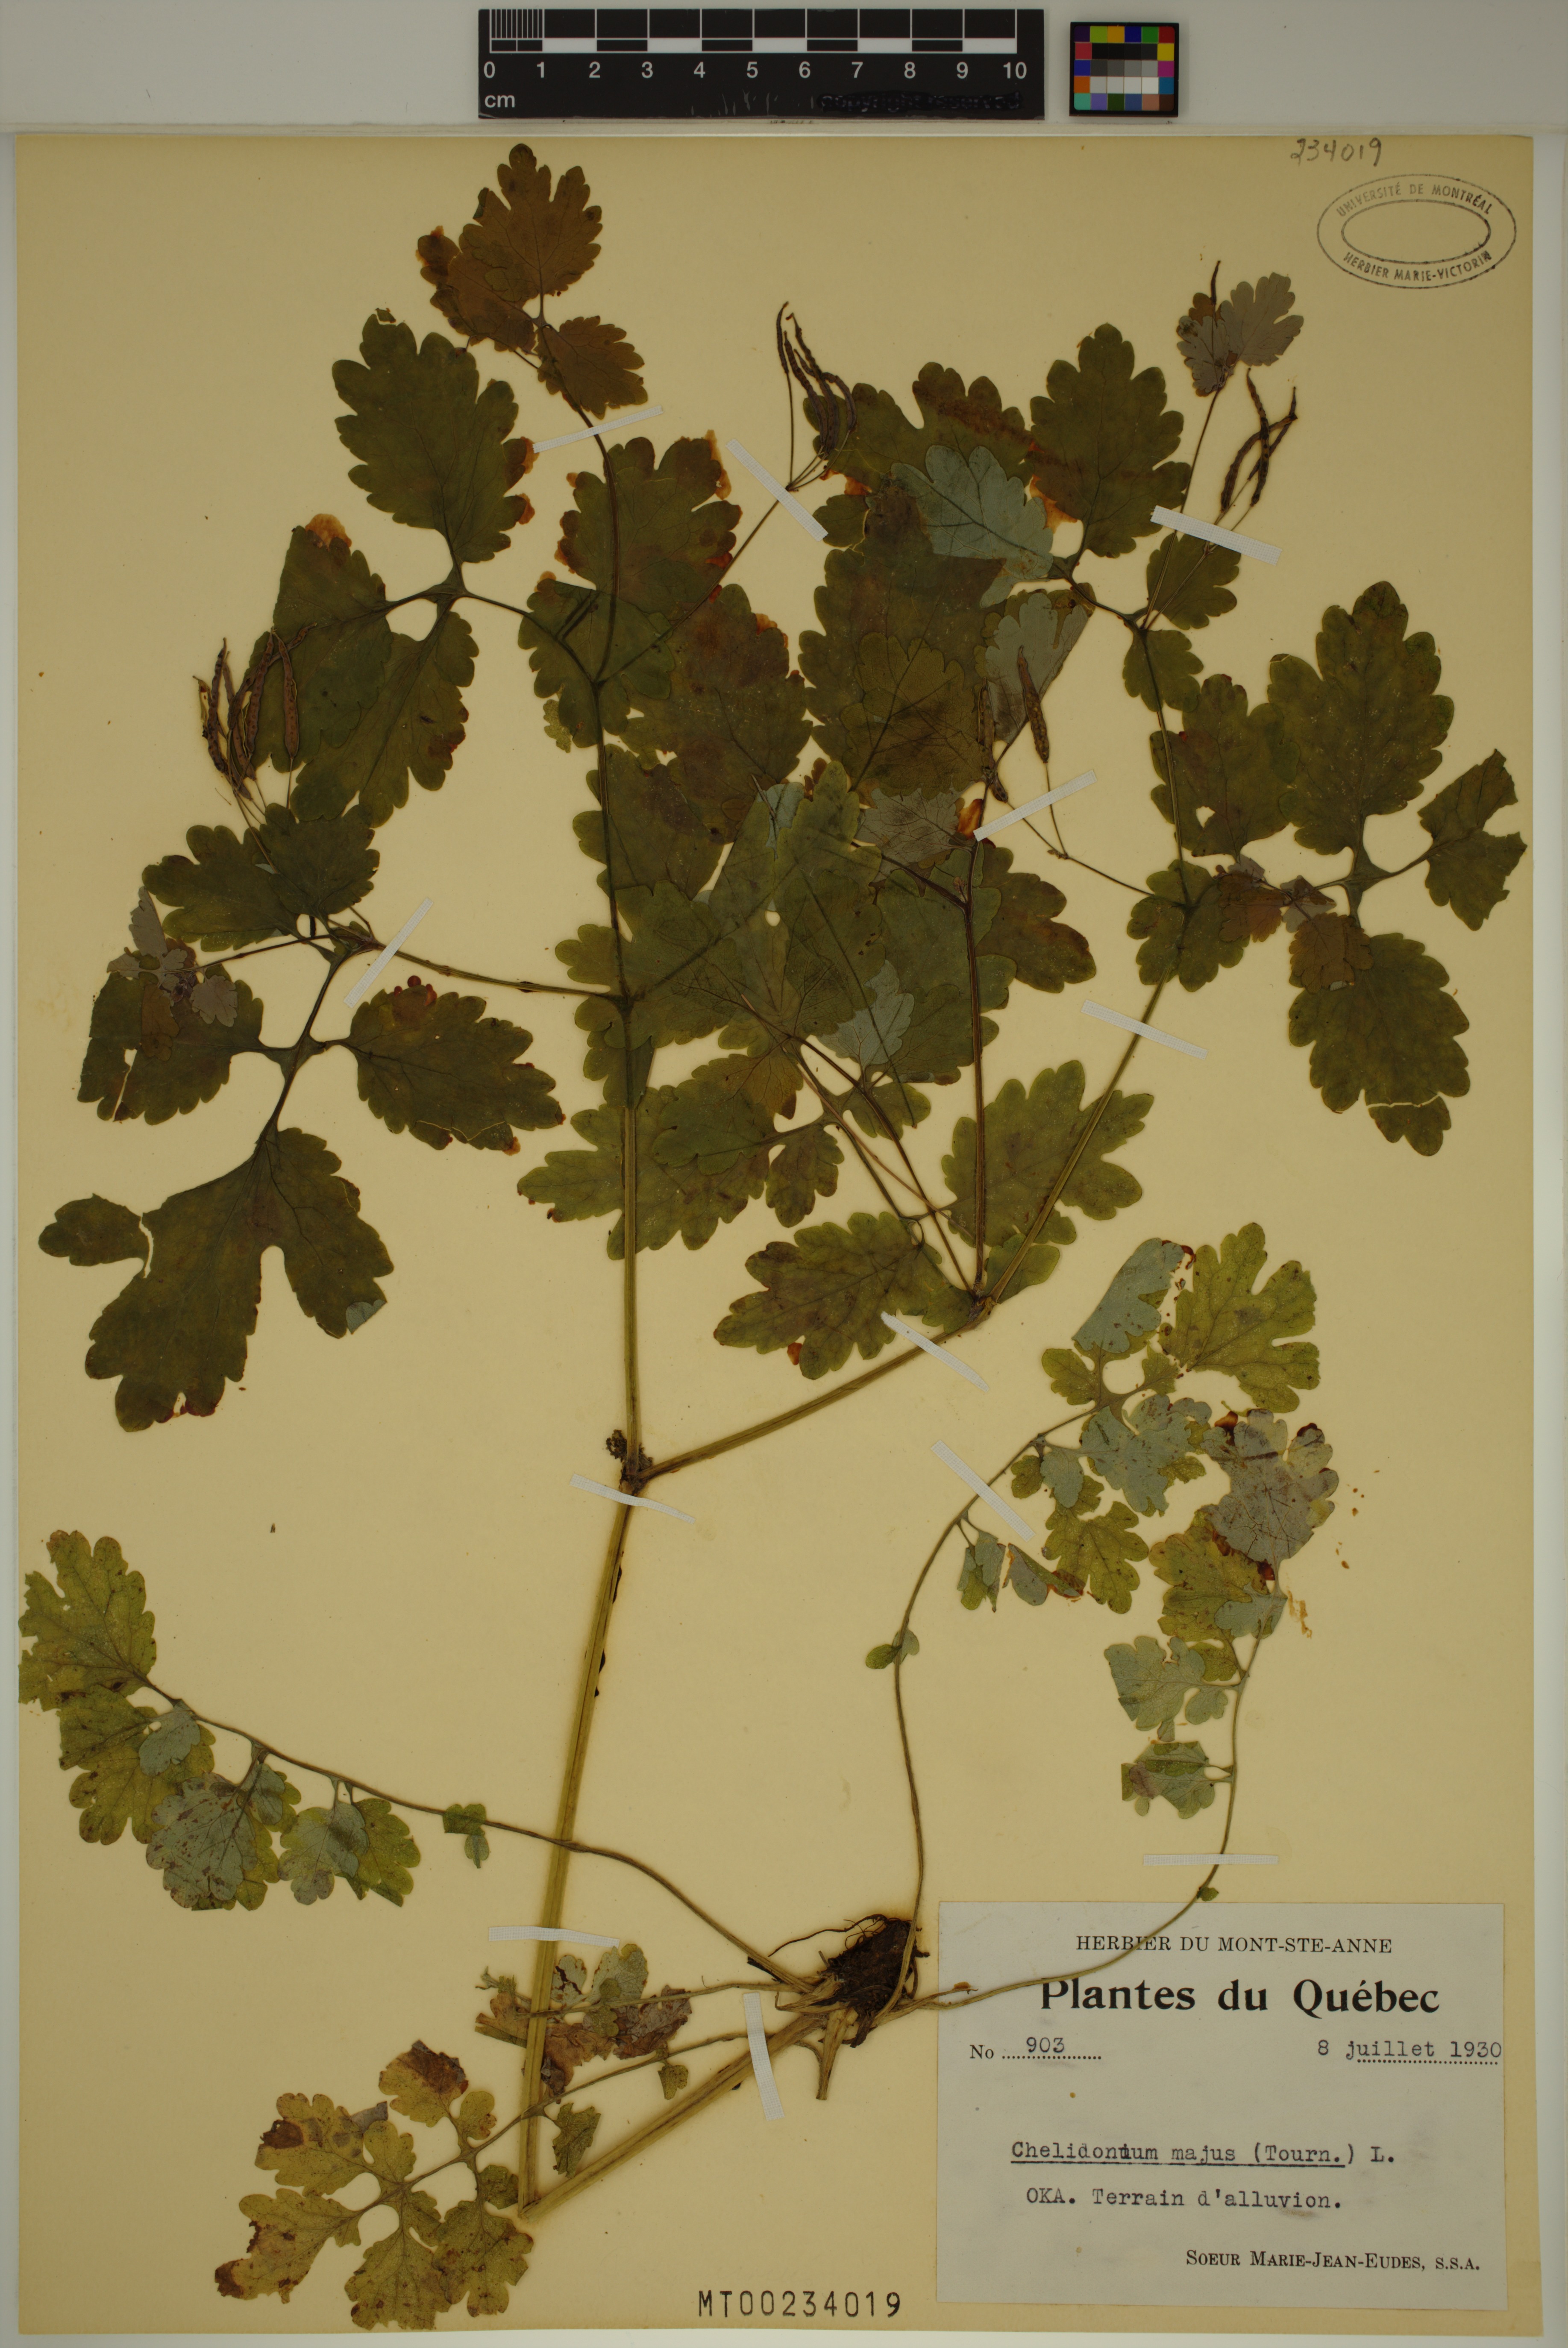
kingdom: Plantae
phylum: Tracheophyta
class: Magnoliopsida
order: Ranunculales
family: Papaveraceae
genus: Chelidonium
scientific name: Chelidonium majus
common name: Greater celandine
